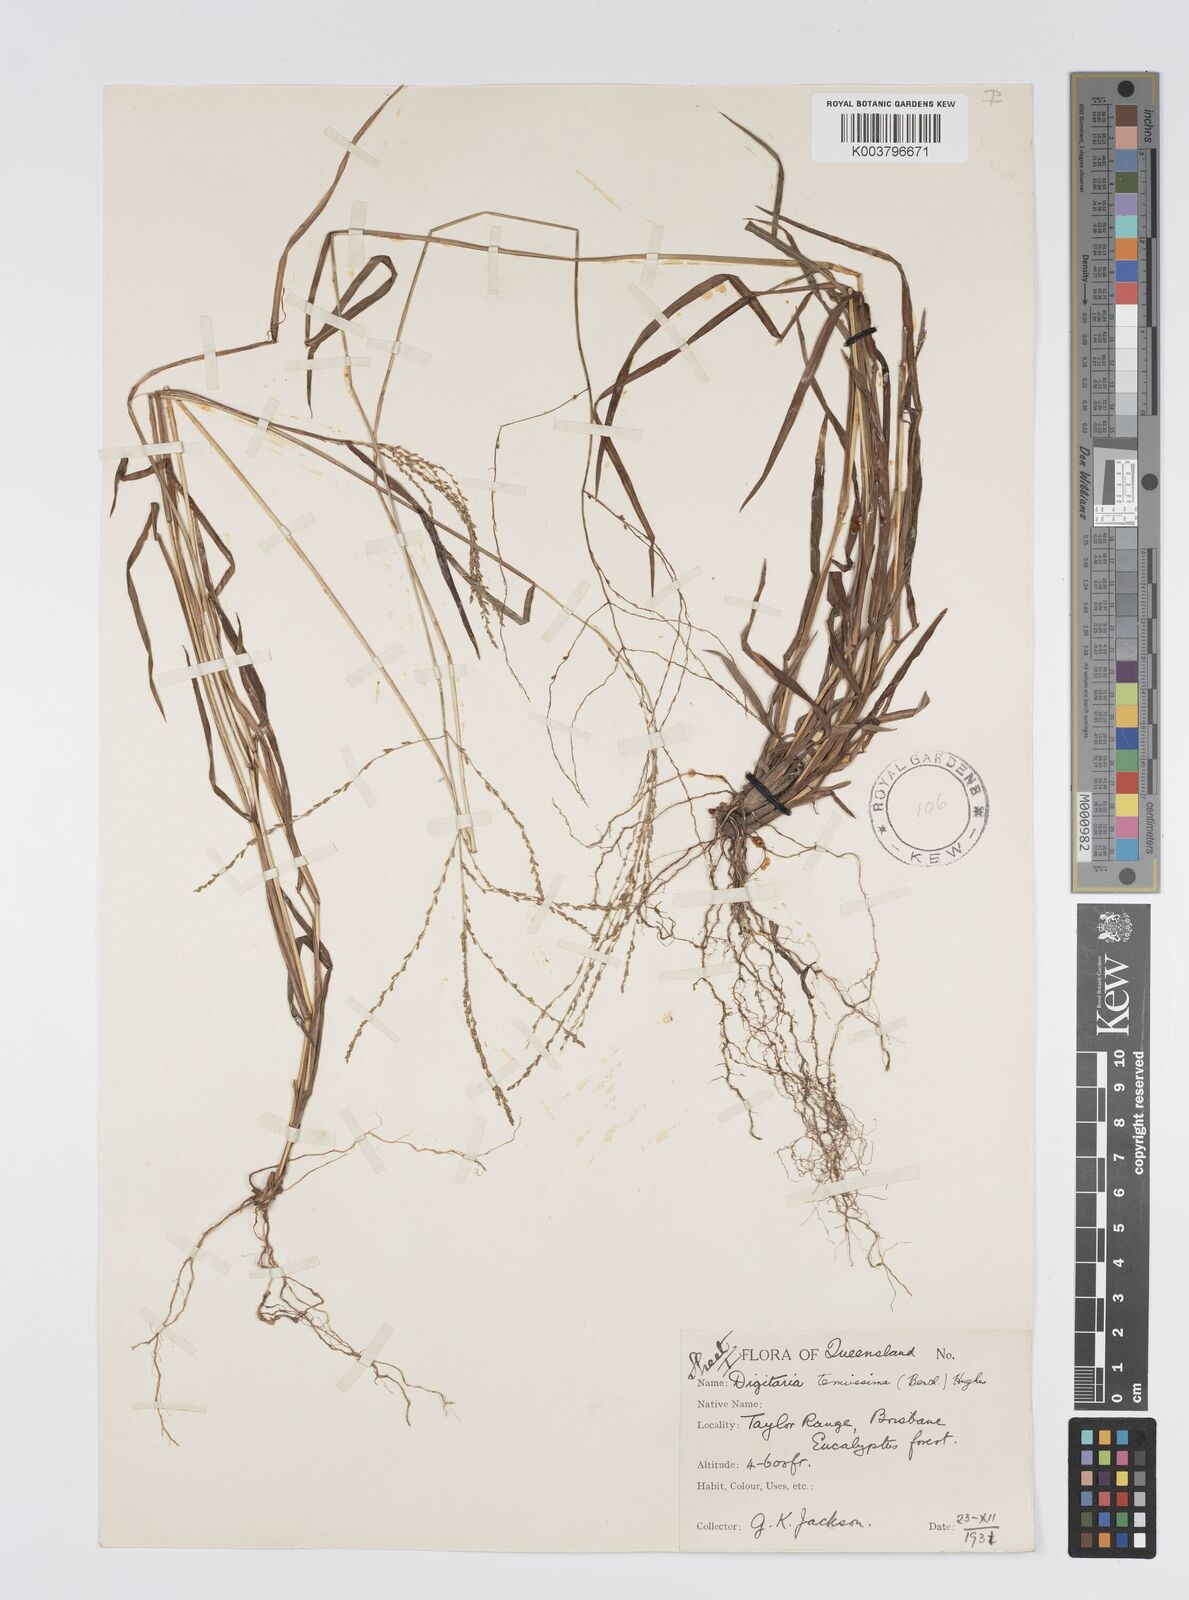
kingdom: Plantae
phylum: Tracheophyta
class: Liliopsida
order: Poales
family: Poaceae
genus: Digitaria
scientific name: Digitaria ramularis
